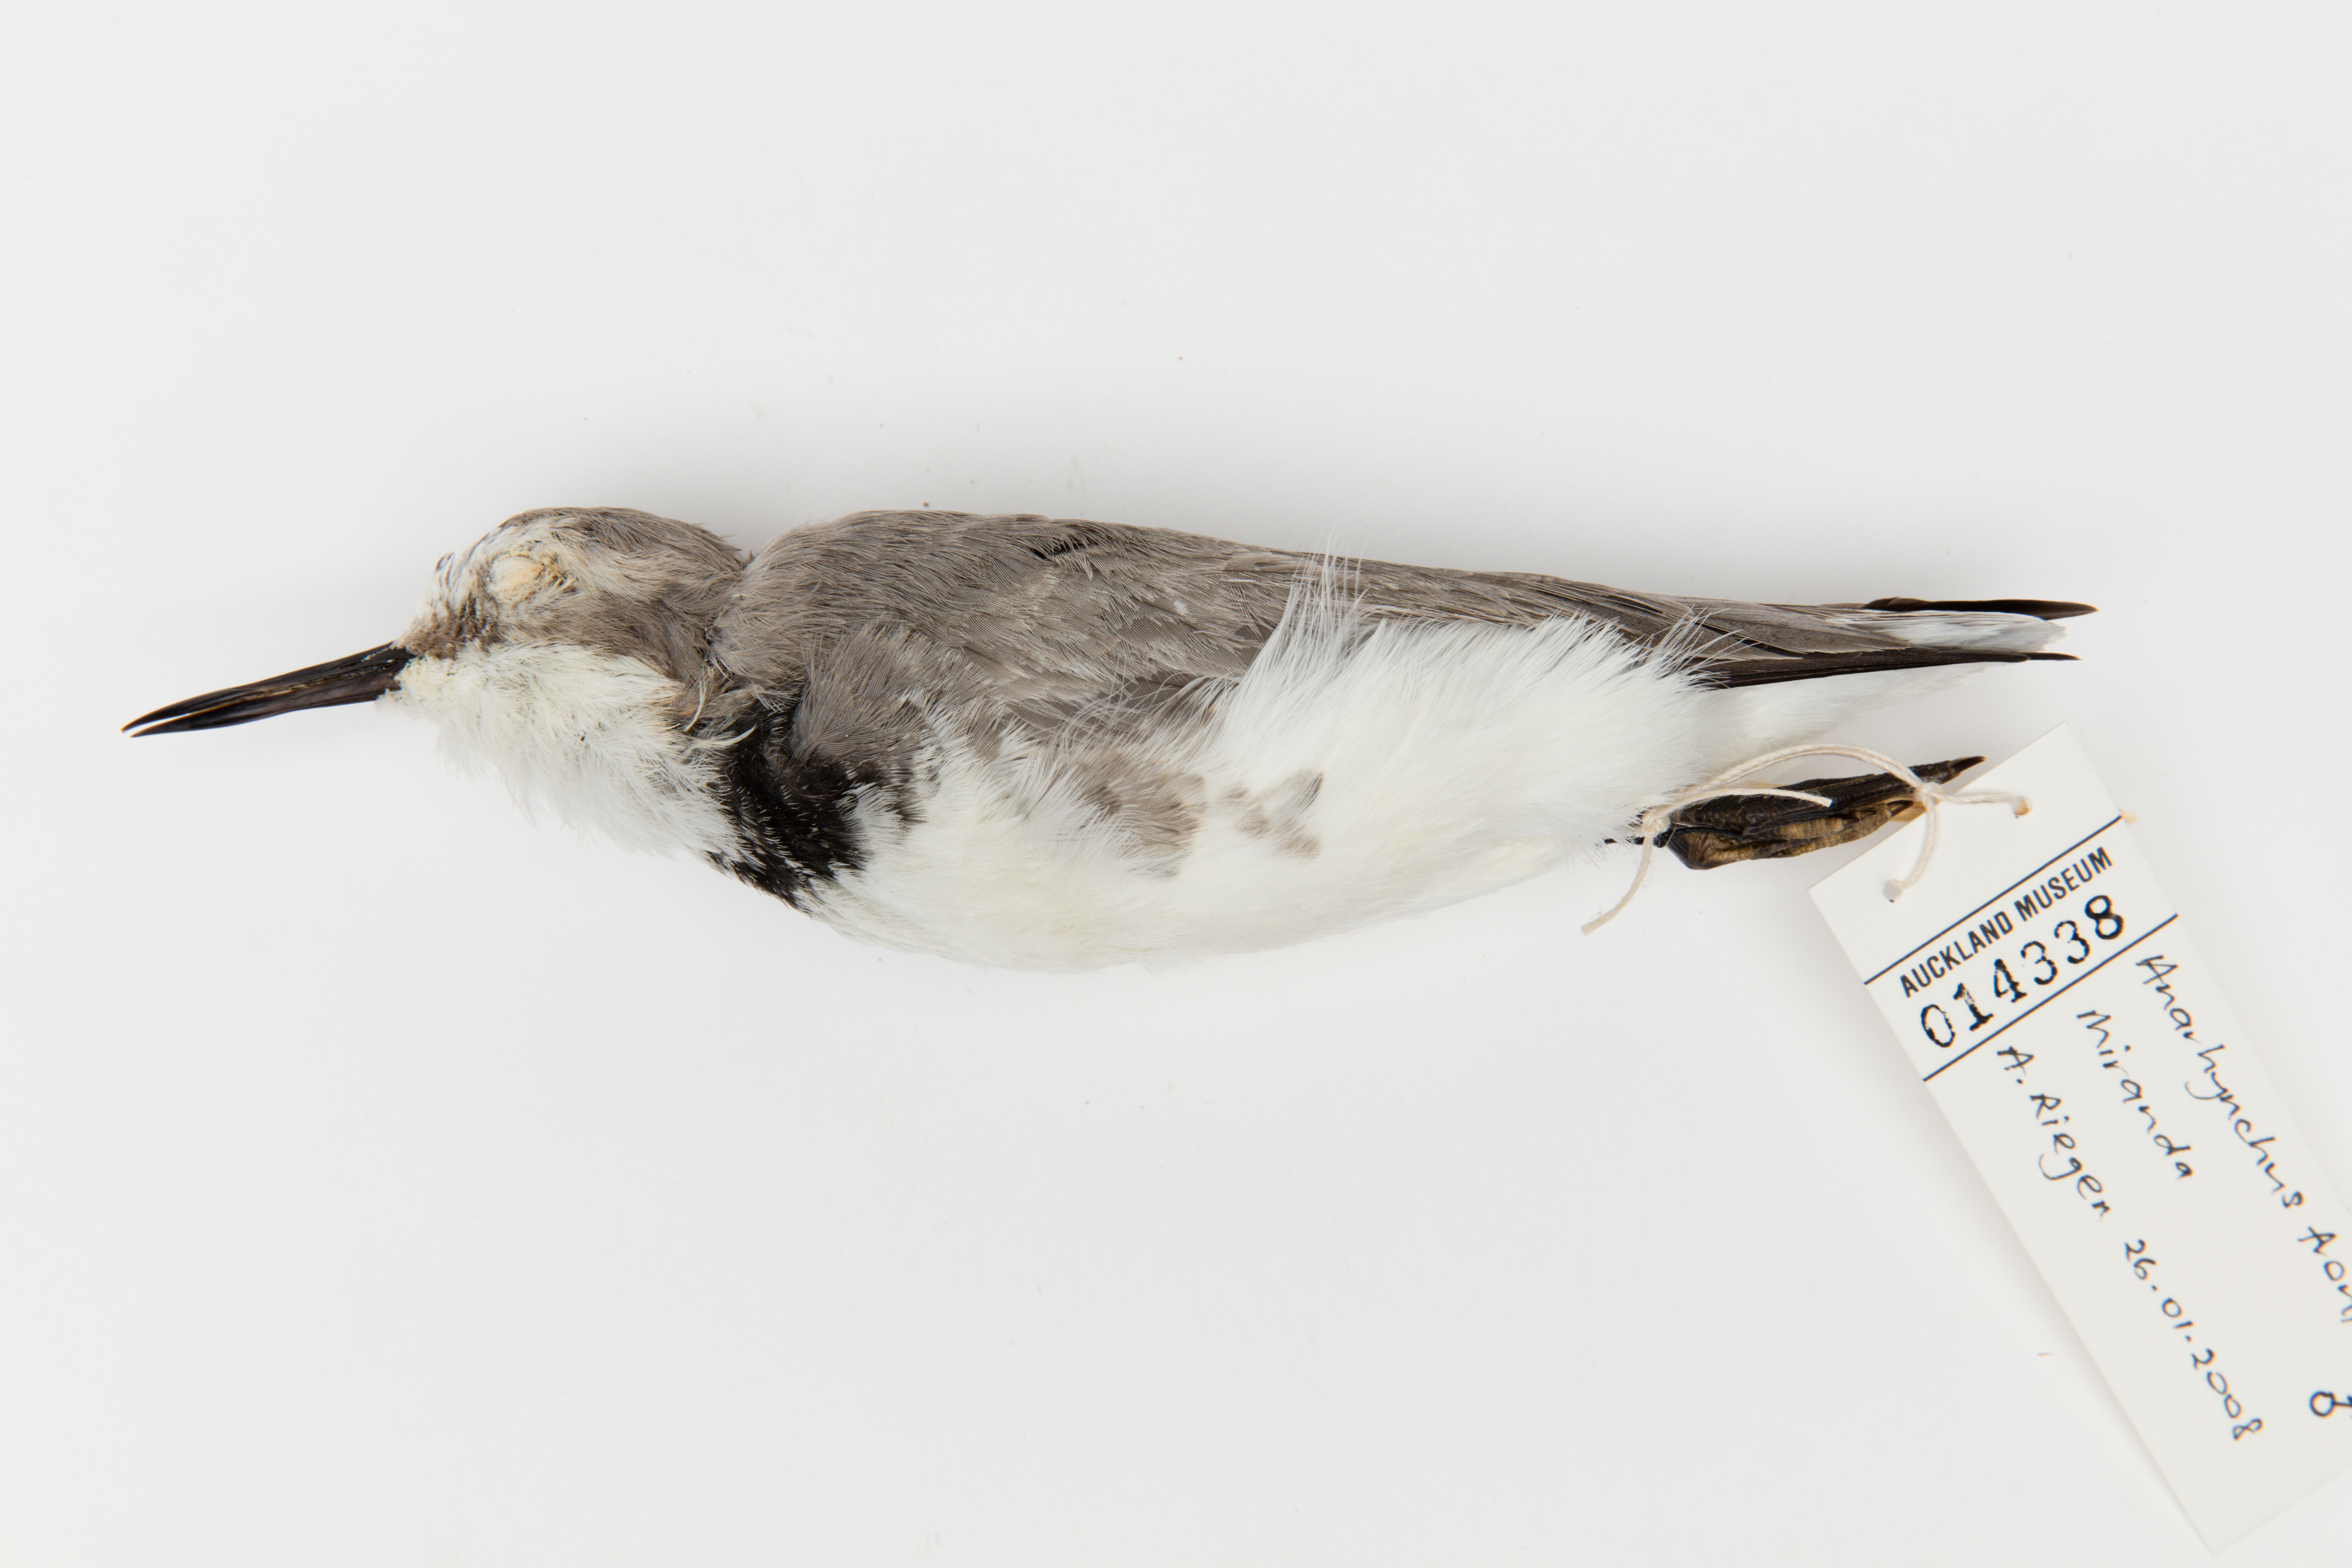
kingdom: Animalia
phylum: Chordata
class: Aves
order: Charadriiformes
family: Charadriidae
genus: Charadrius
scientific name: Charadrius frontalis
